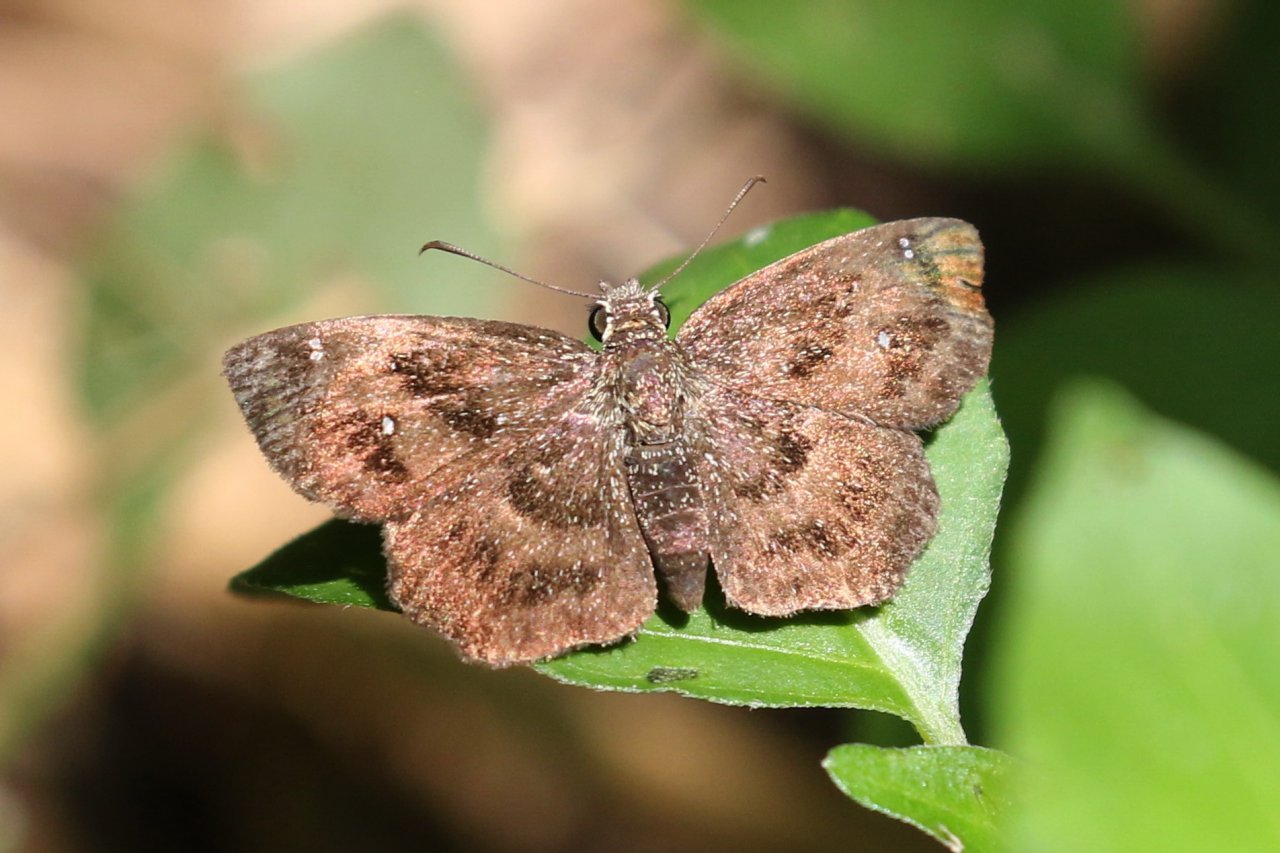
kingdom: Animalia
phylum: Arthropoda
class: Insecta
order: Lepidoptera
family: Hesperiidae
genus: Staphylus
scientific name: Staphylus mazans
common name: Mazans Scallopwing
